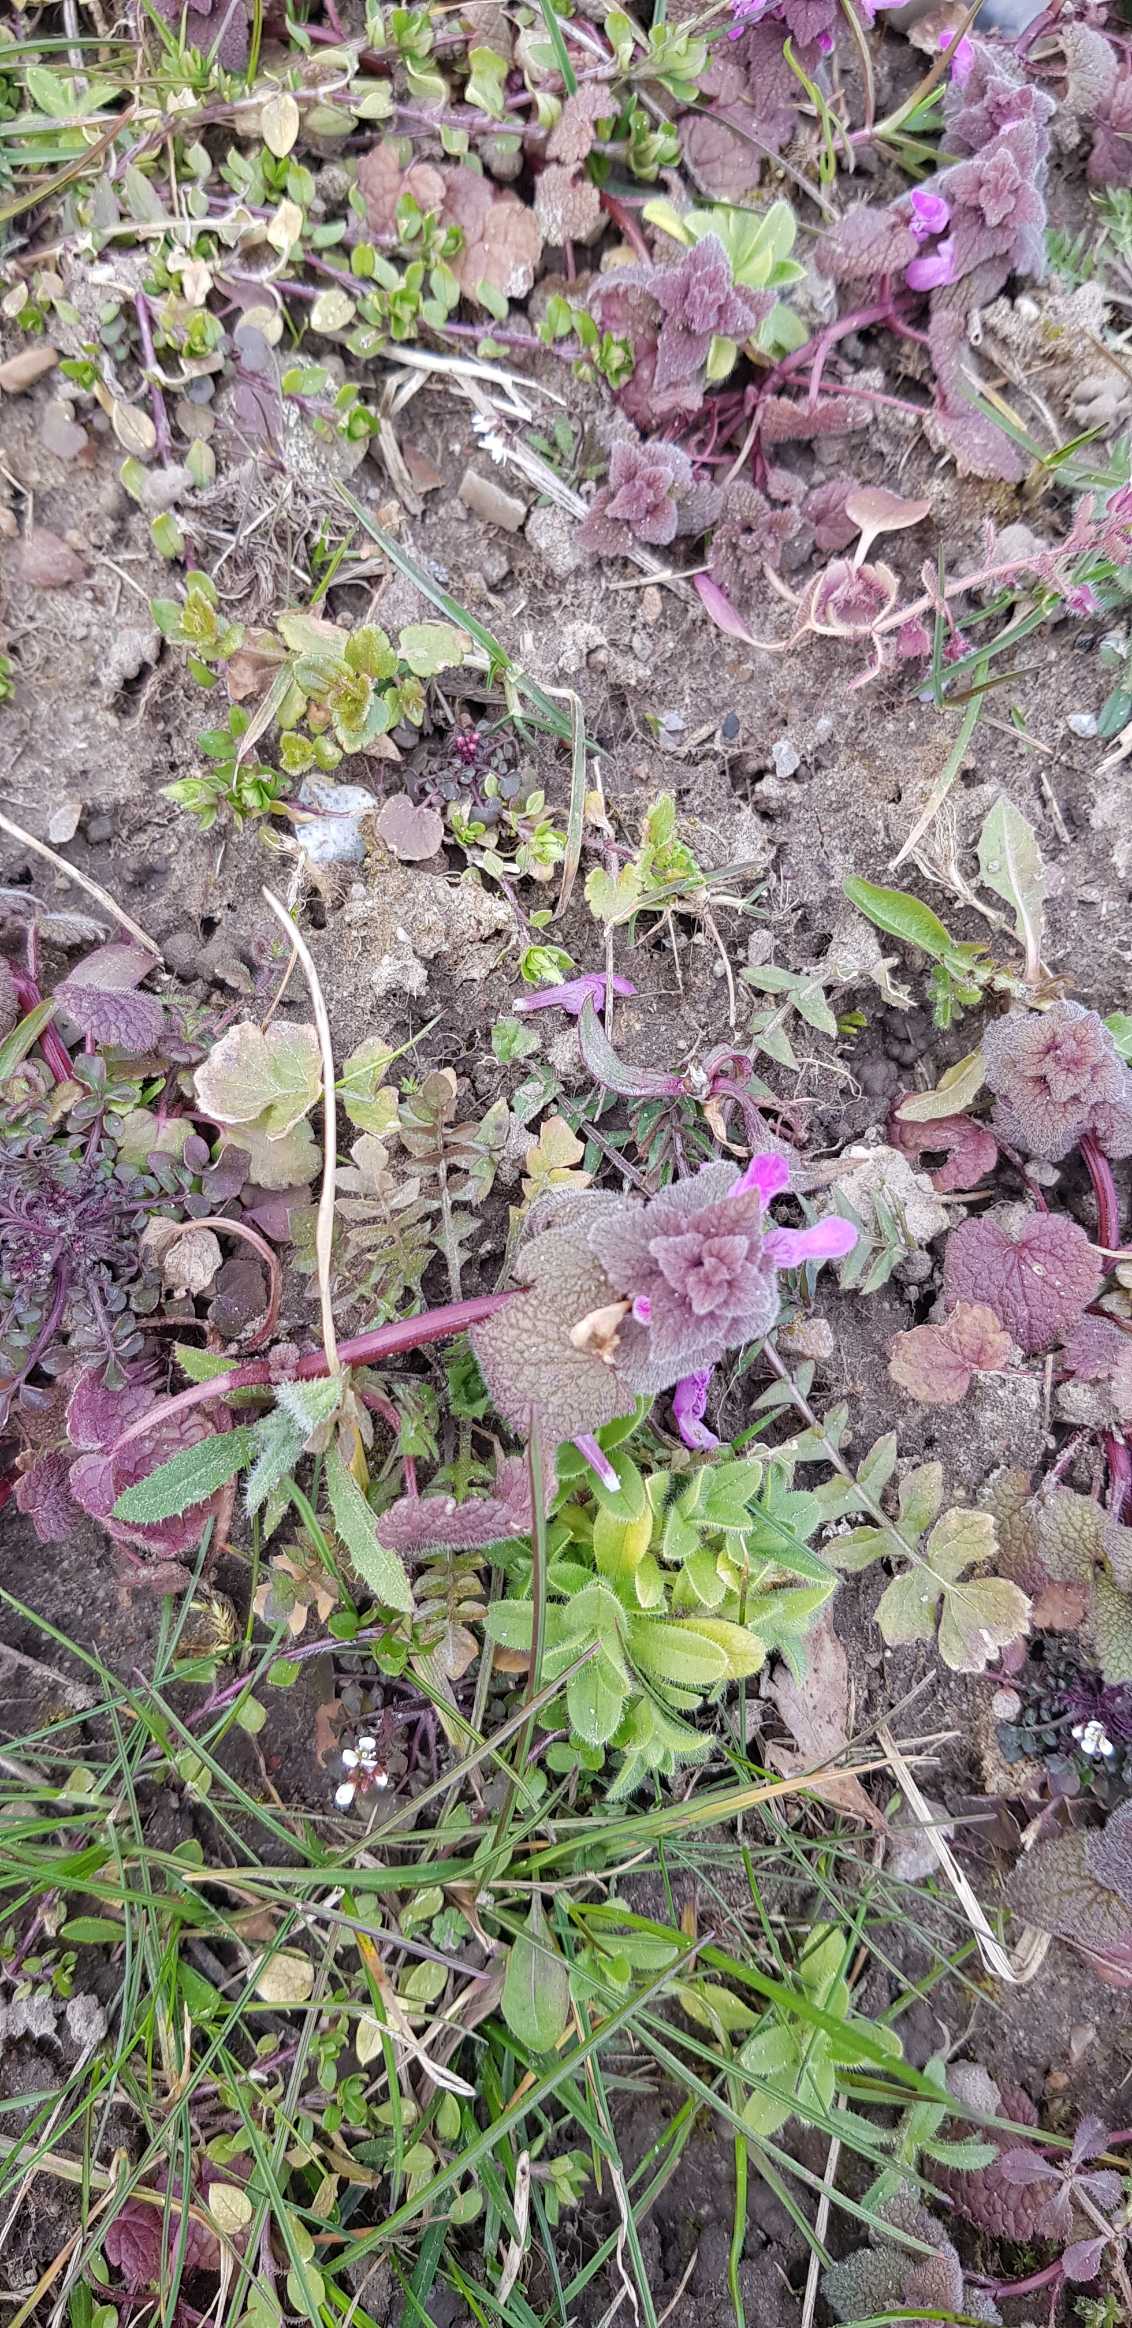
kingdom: Plantae
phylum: Tracheophyta
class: Magnoliopsida
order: Lamiales
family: Lamiaceae
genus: Lamium
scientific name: Lamium purpureum
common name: Rød tvetand
